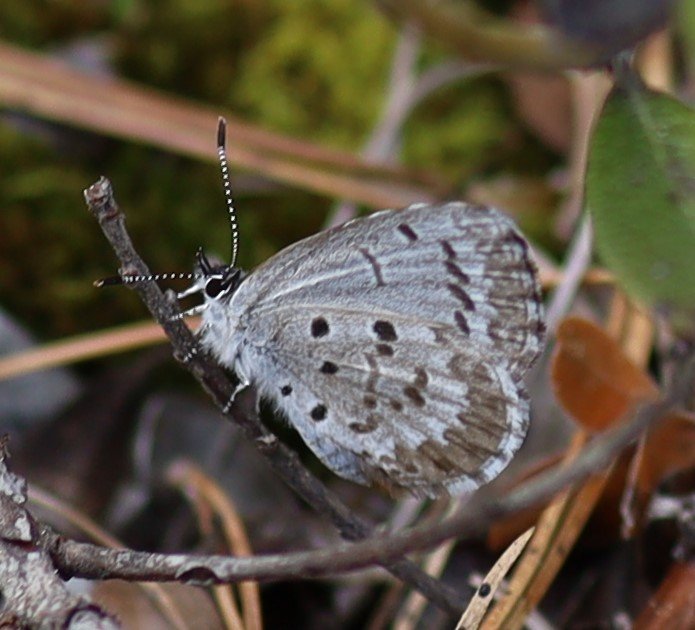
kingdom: Animalia
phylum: Arthropoda
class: Insecta
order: Lepidoptera
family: Lycaenidae
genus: Celastrina
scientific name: Celastrina lucia
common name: Northern Spring Azure
